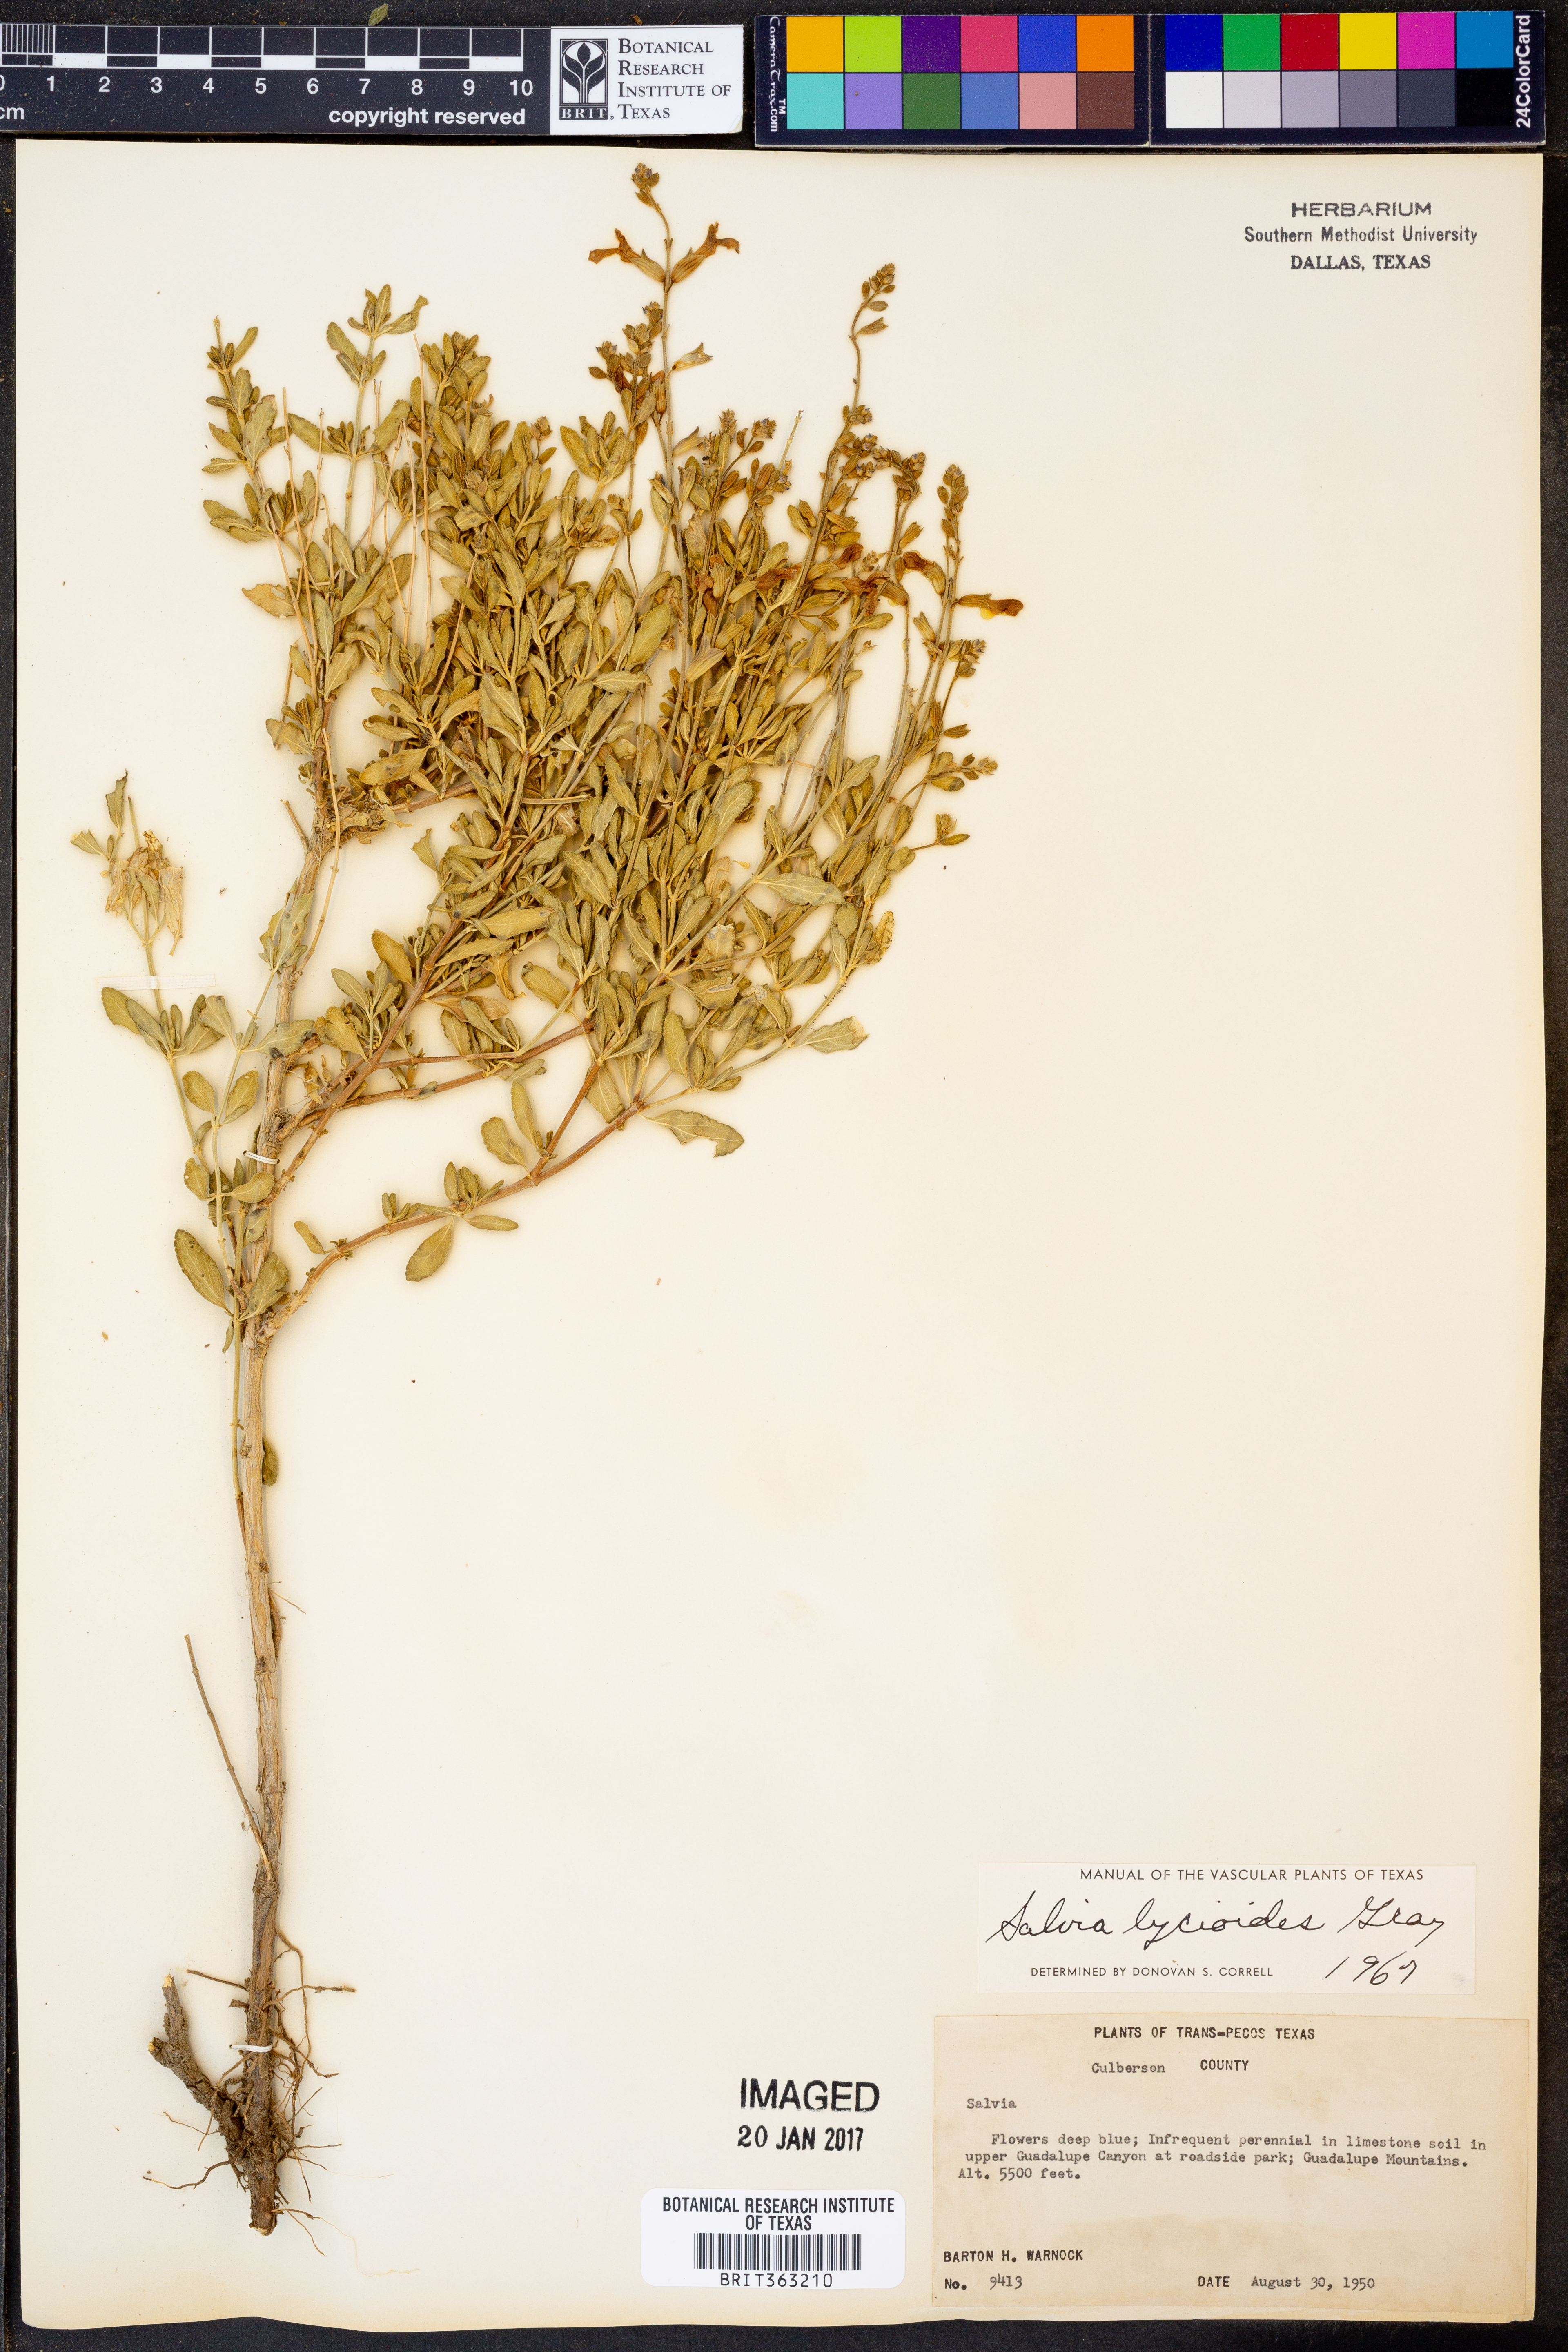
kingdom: Plantae
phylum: Tracheophyta
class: Magnoliopsida
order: Lamiales
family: Lamiaceae
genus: Salvia
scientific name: Salvia lycioides
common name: Canyon sage
